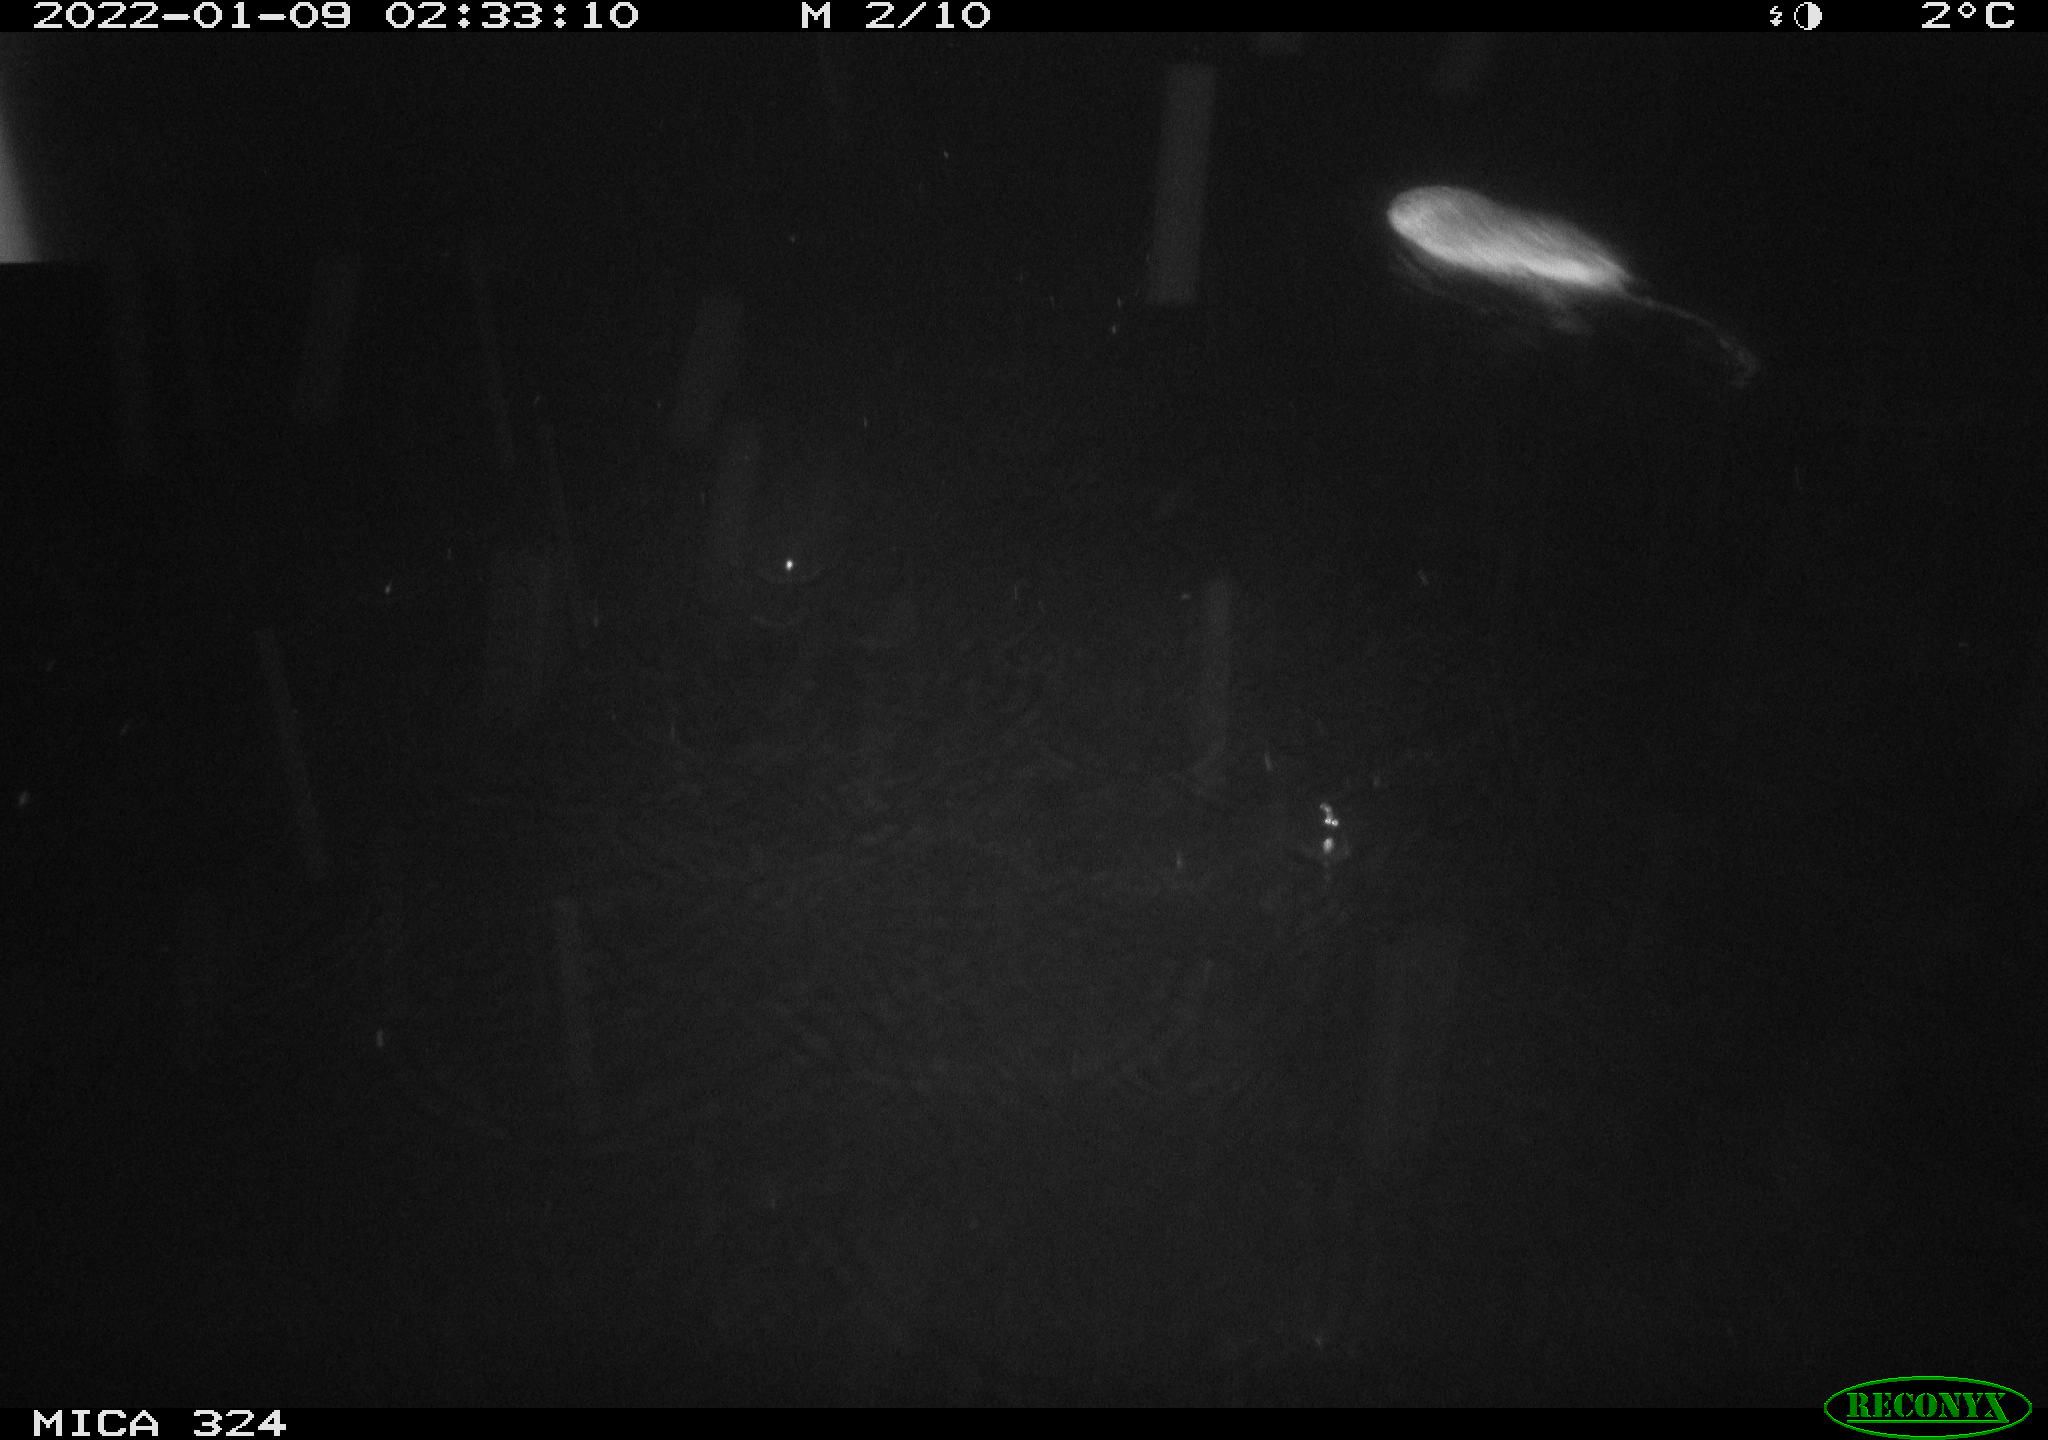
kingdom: Animalia
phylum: Chordata
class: Mammalia
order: Rodentia
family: Cricetidae
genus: Ondatra
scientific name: Ondatra zibethicus
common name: Muskrat
